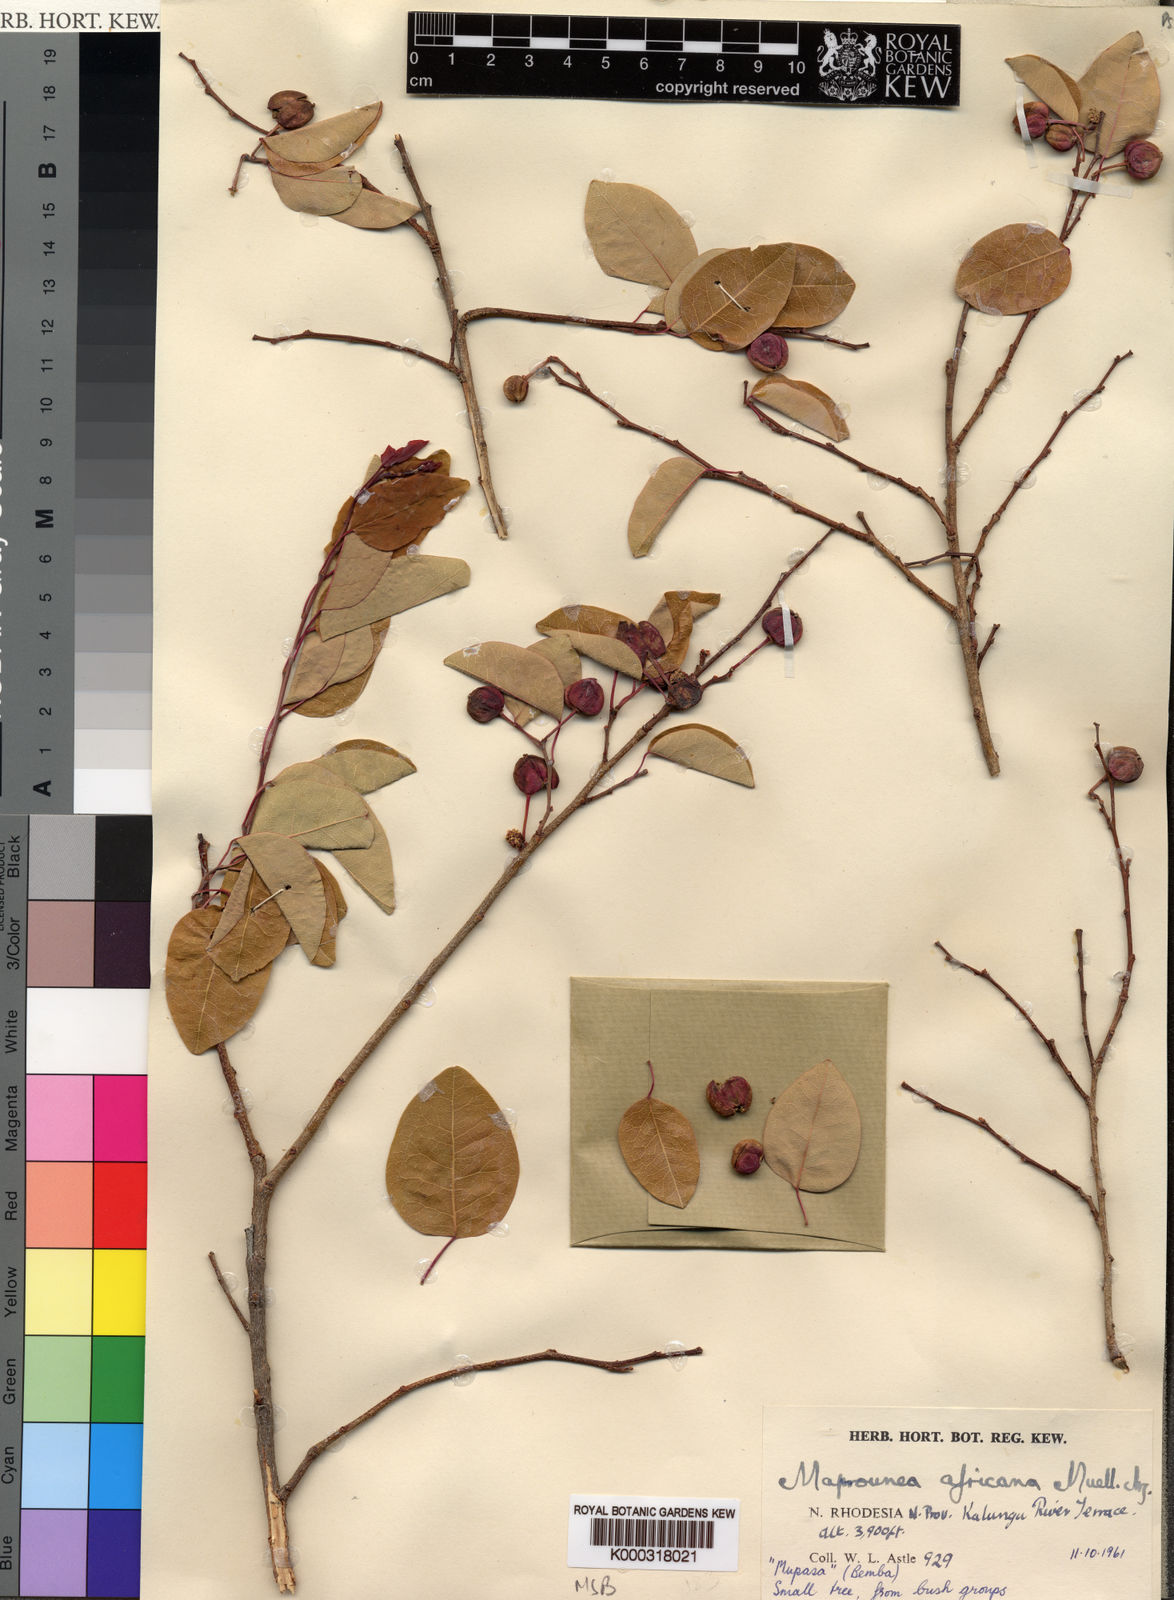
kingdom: Plantae
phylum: Tracheophyta
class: Magnoliopsida
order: Malpighiales
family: Euphorbiaceae
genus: Maprounea
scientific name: Maprounea
